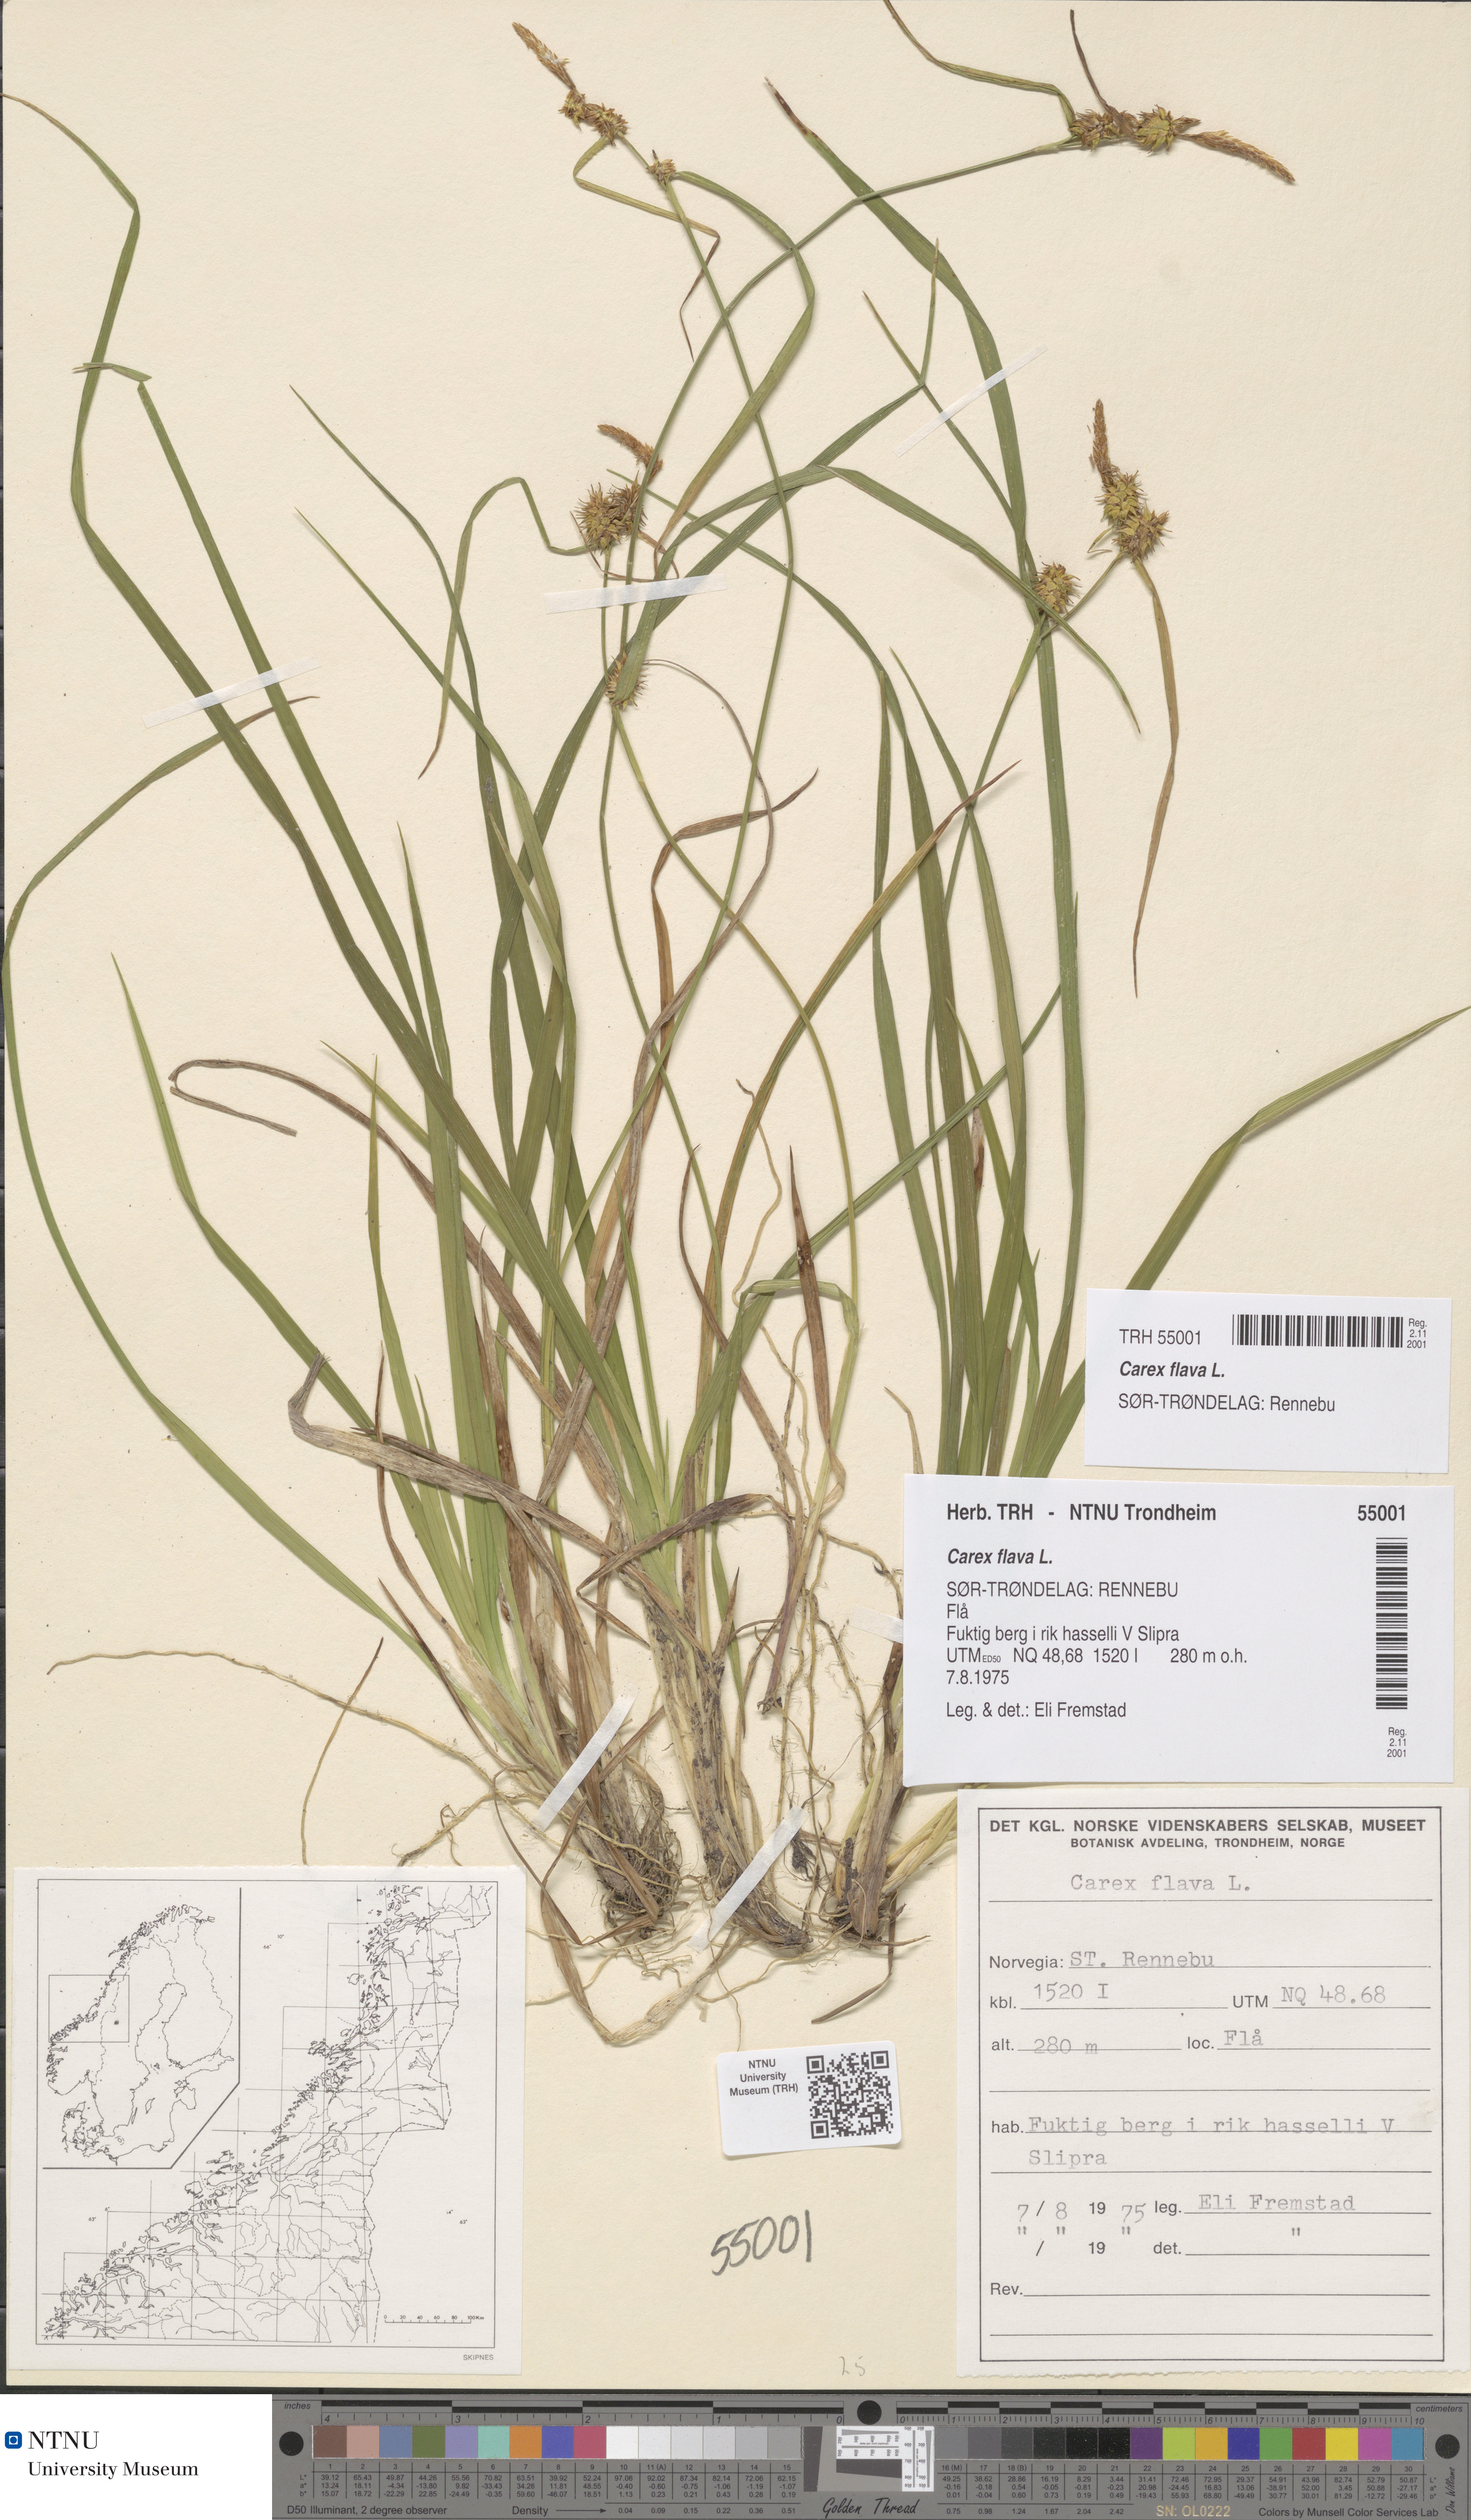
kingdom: Plantae
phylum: Tracheophyta
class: Liliopsida
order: Poales
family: Cyperaceae
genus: Carex
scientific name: Carex flava
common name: Large yellow-sedge
